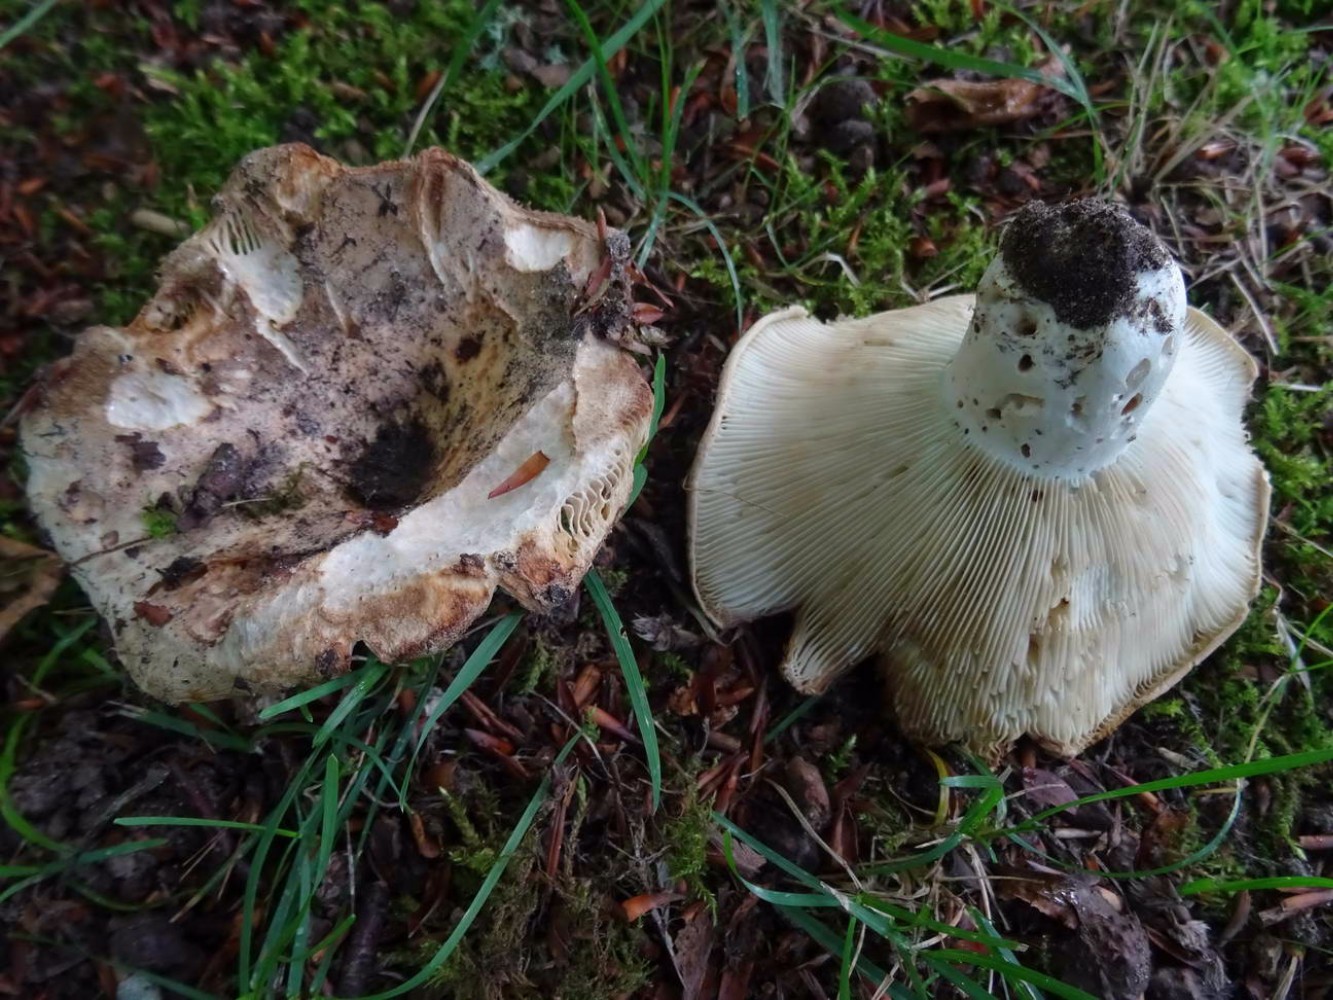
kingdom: Fungi
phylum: Basidiomycota
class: Agaricomycetes
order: Russulales
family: Russulaceae
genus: Russula
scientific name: Russula chloroides
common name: grønhalset tragt-skørhat
